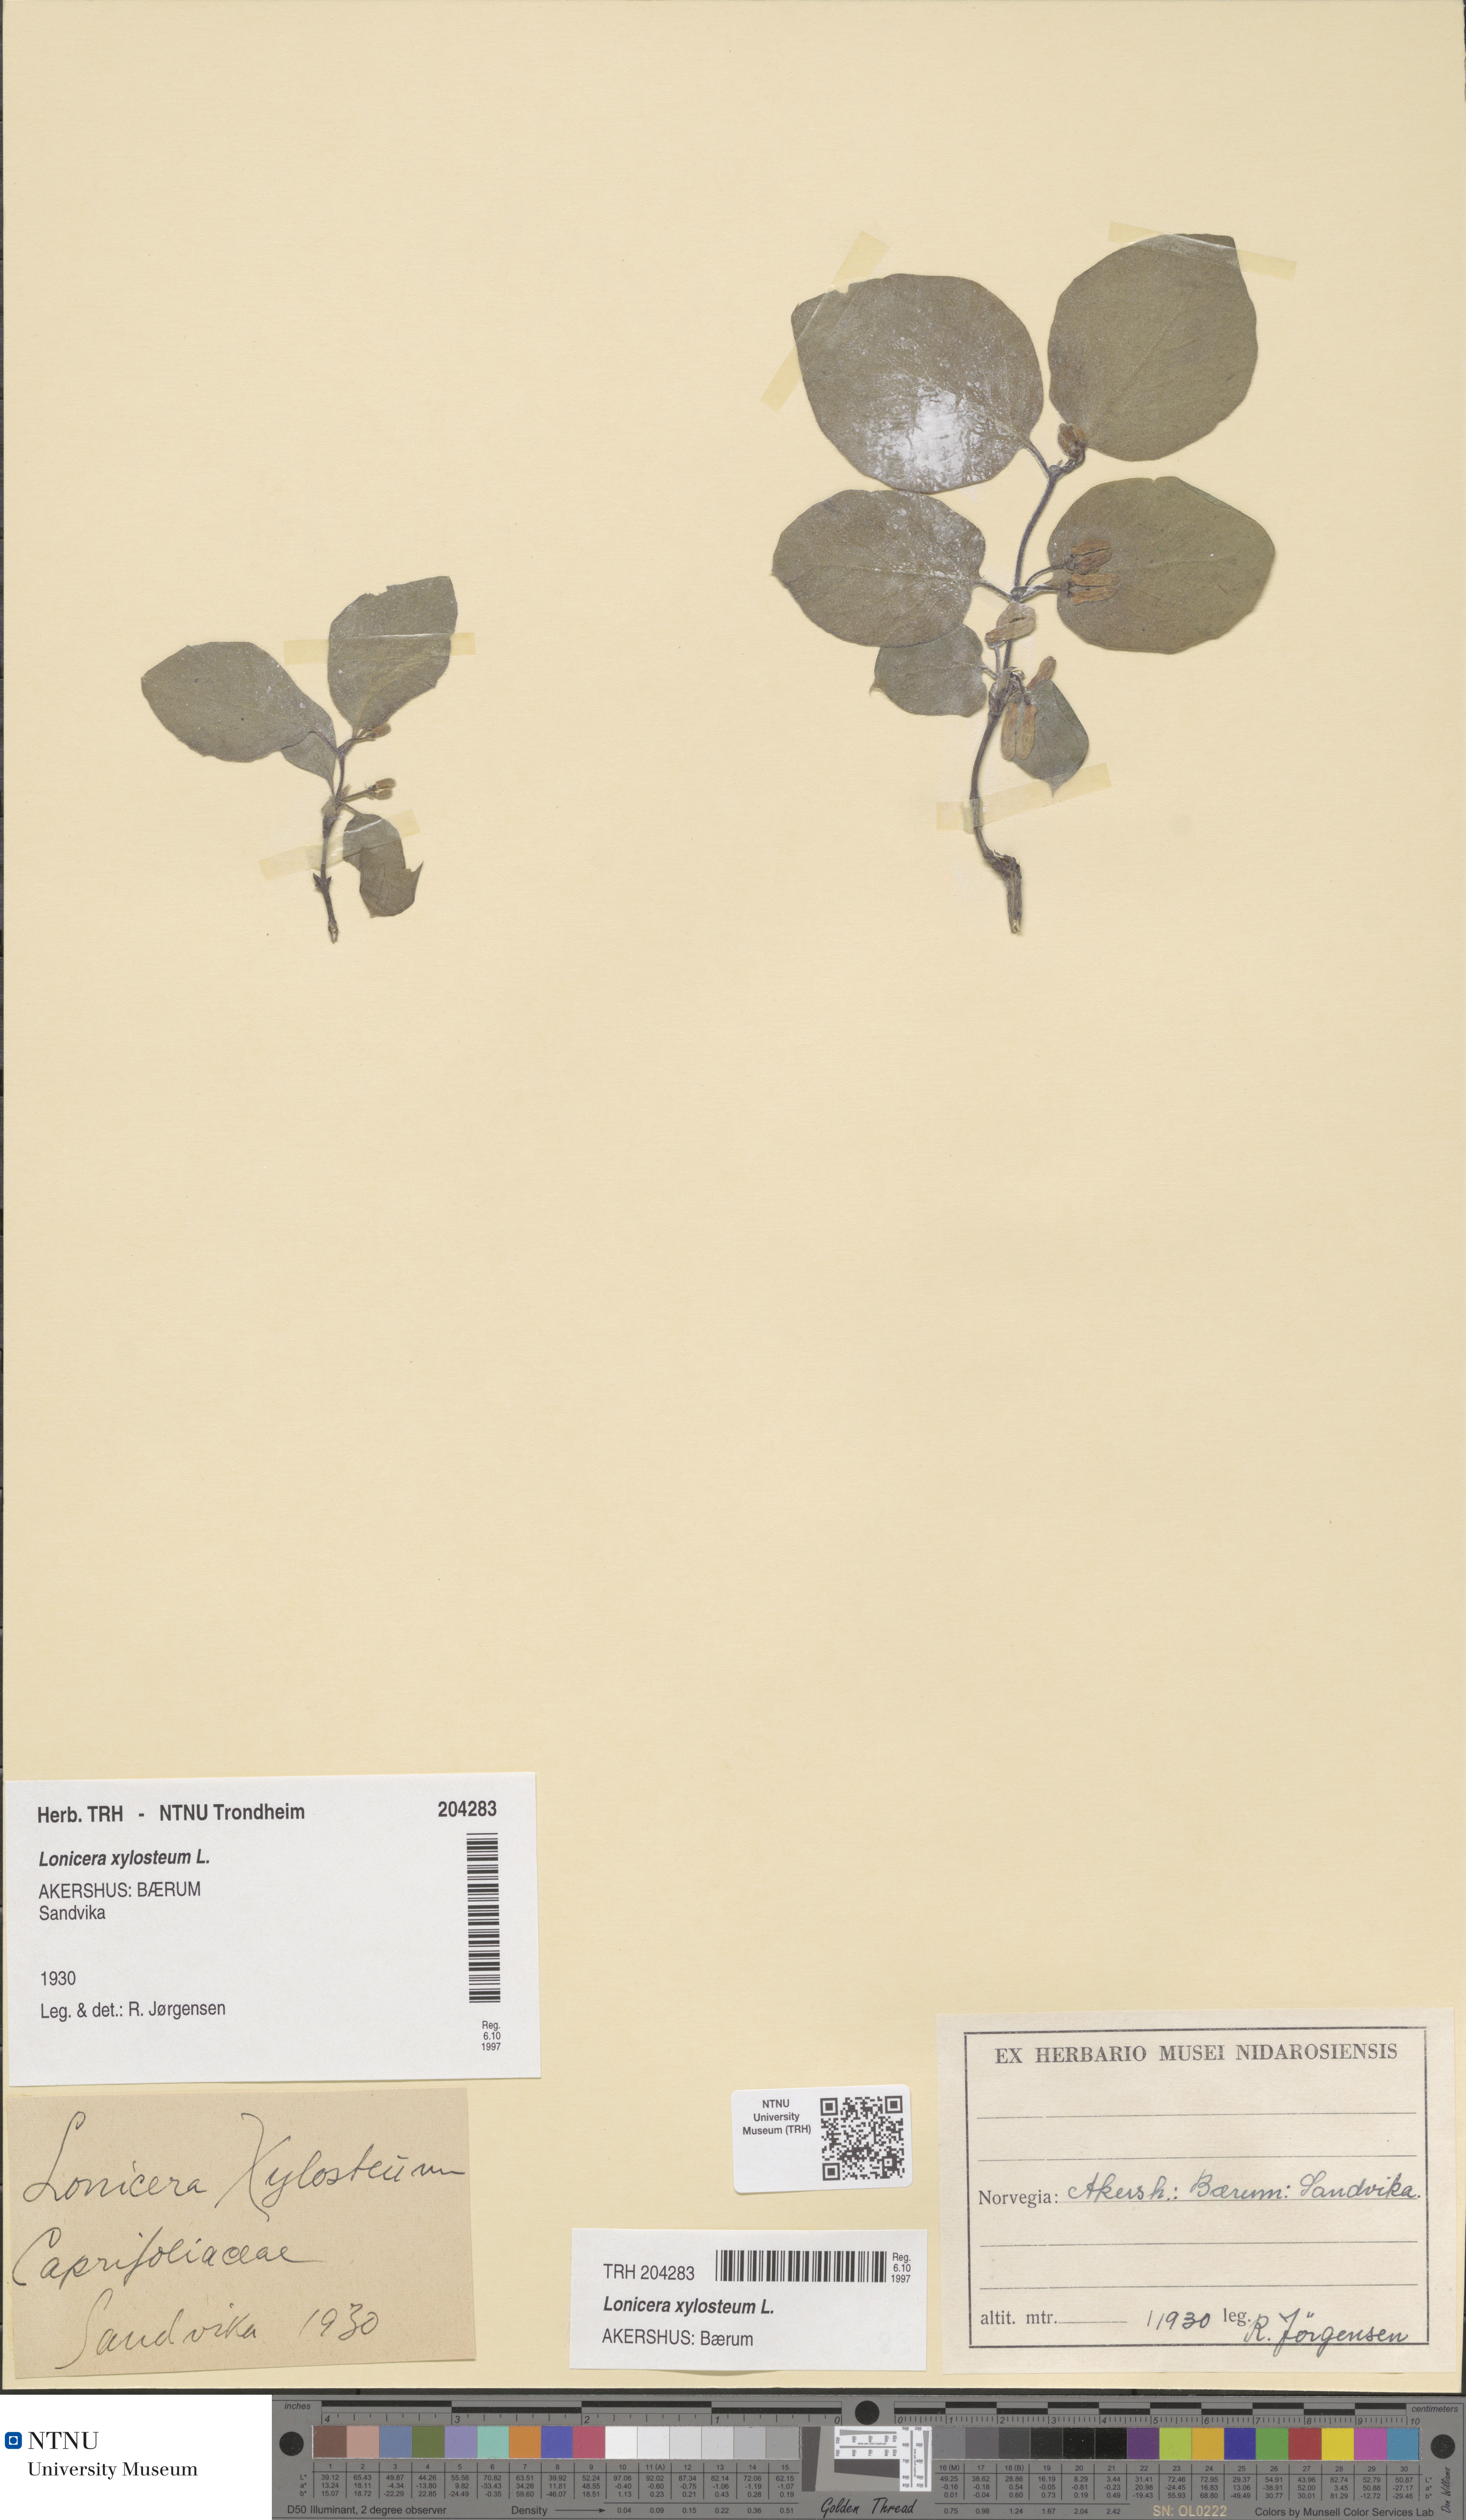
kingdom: Plantae
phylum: Tracheophyta
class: Magnoliopsida
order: Dipsacales
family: Caprifoliaceae
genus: Lonicera
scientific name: Lonicera xylosteum
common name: Fly honeysuckle
